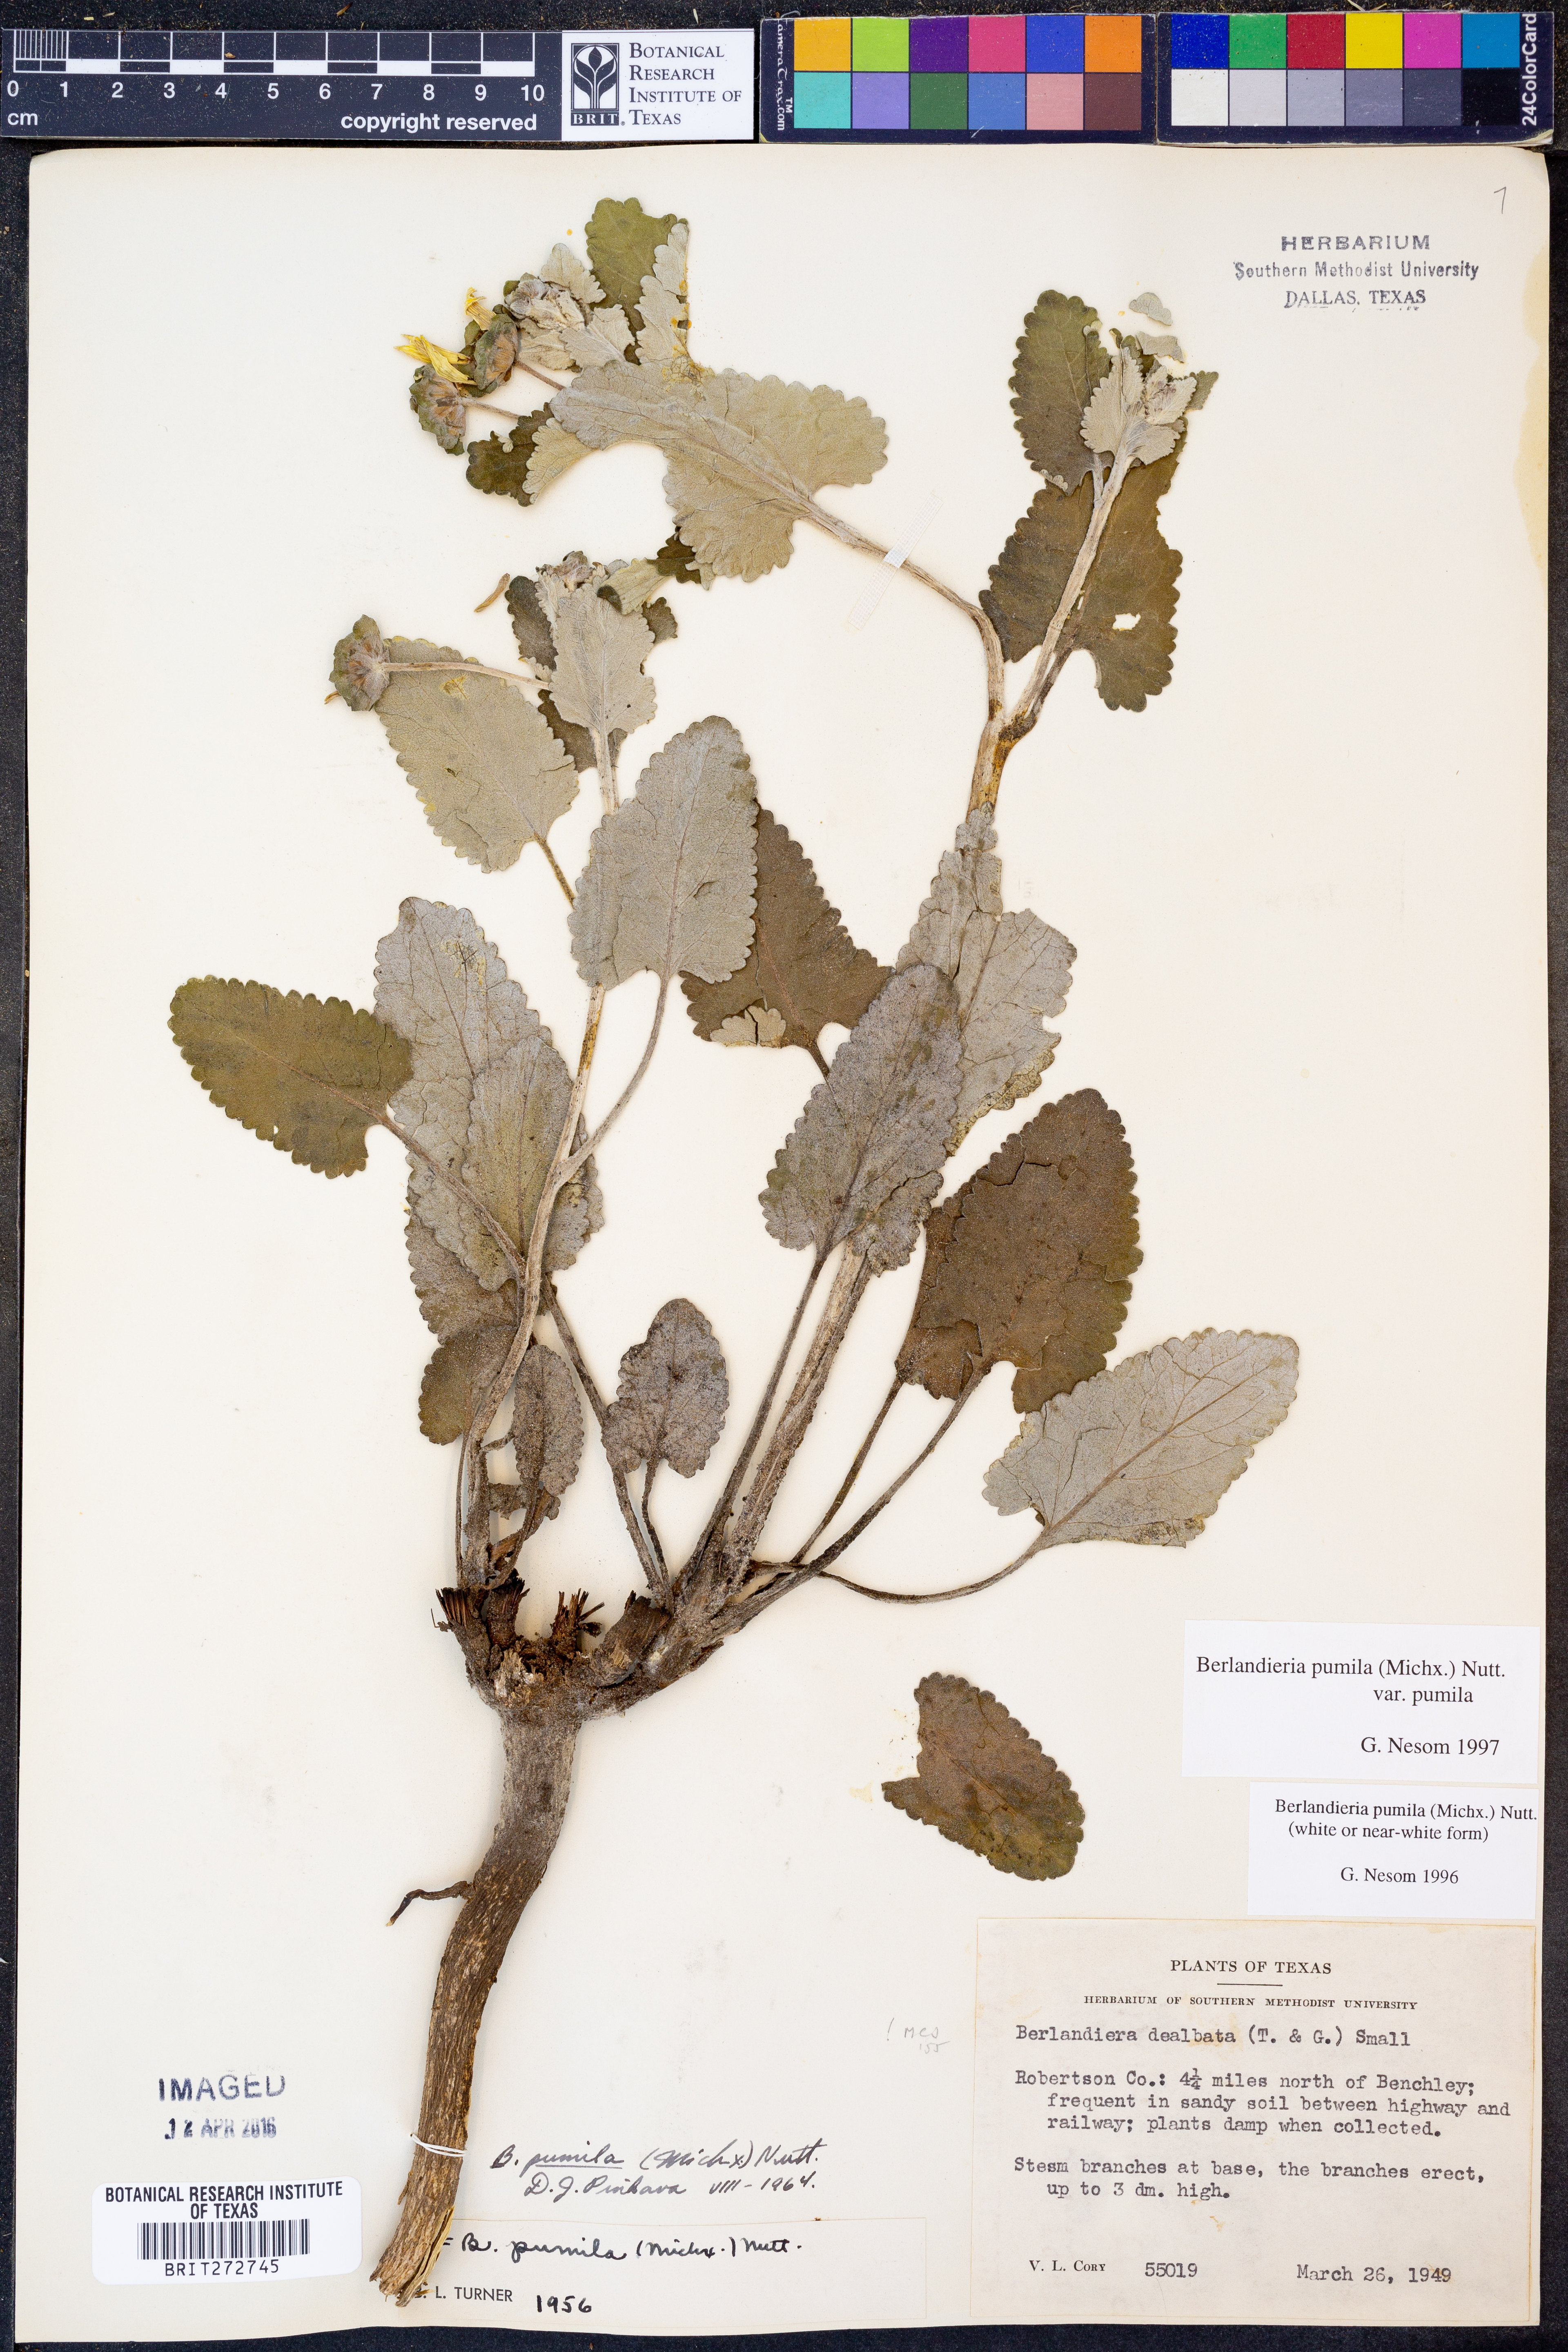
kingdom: Plantae
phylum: Tracheophyta
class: Magnoliopsida
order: Asterales
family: Asteraceae
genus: Berlandiera
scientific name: Berlandiera pumila
